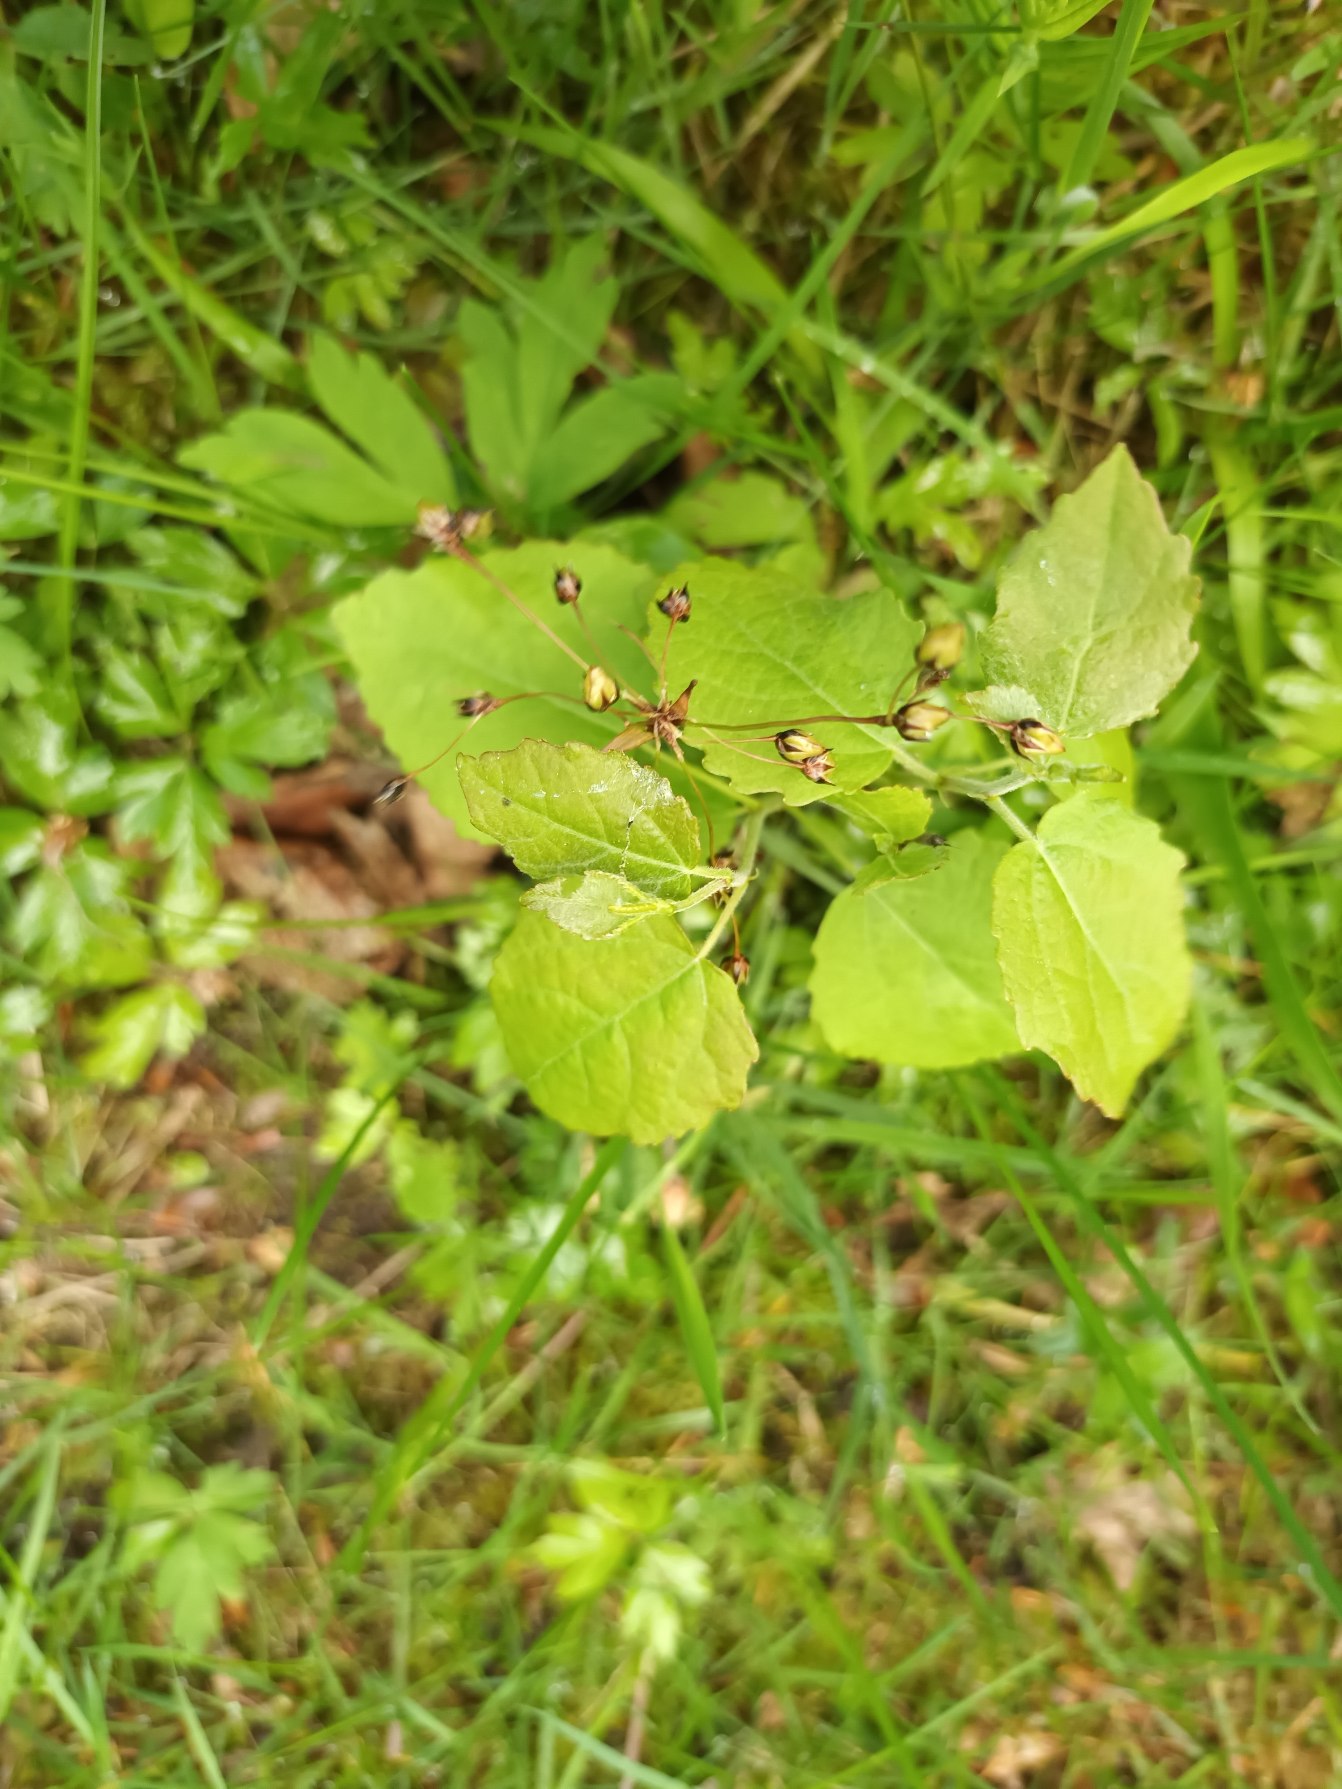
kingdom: Plantae
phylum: Tracheophyta
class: Liliopsida
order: Poales
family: Juncaceae
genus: Luzula
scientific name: Luzula pilosa
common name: Håret frytle
